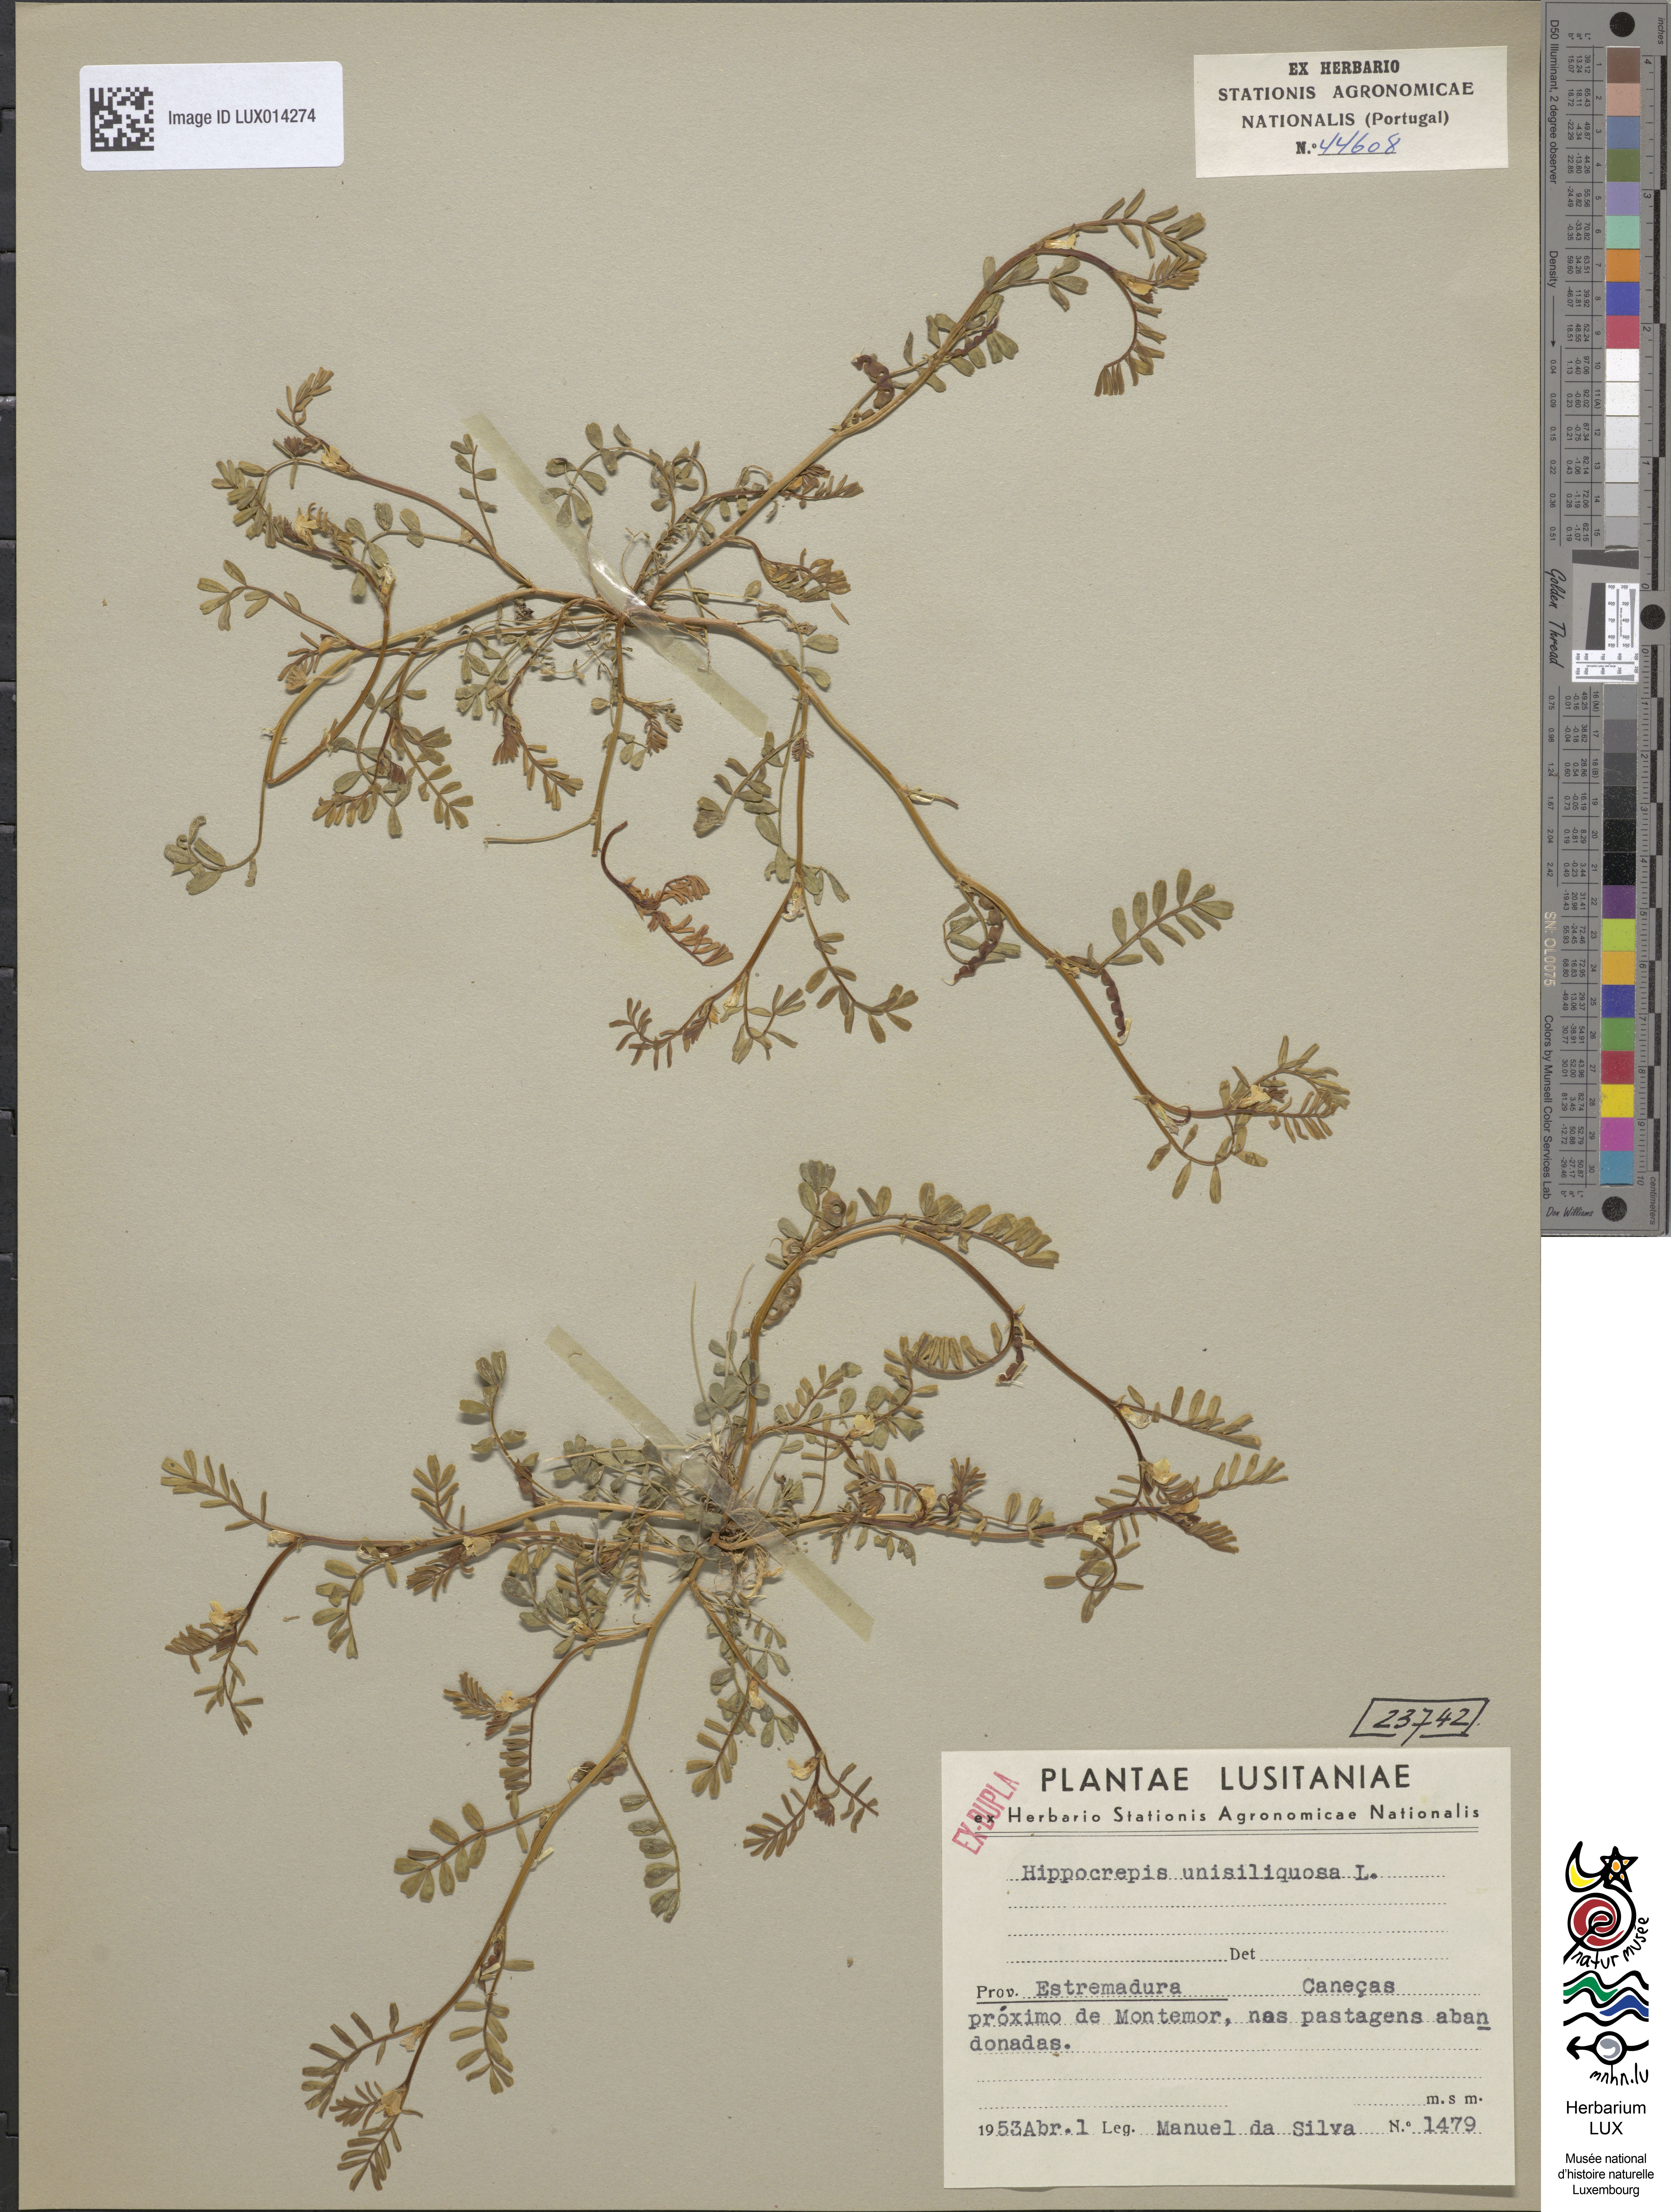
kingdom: Plantae
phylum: Tracheophyta
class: Magnoliopsida
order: Fabales
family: Fabaceae
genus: Hippocrepis
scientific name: Hippocrepis unisiliquosa
